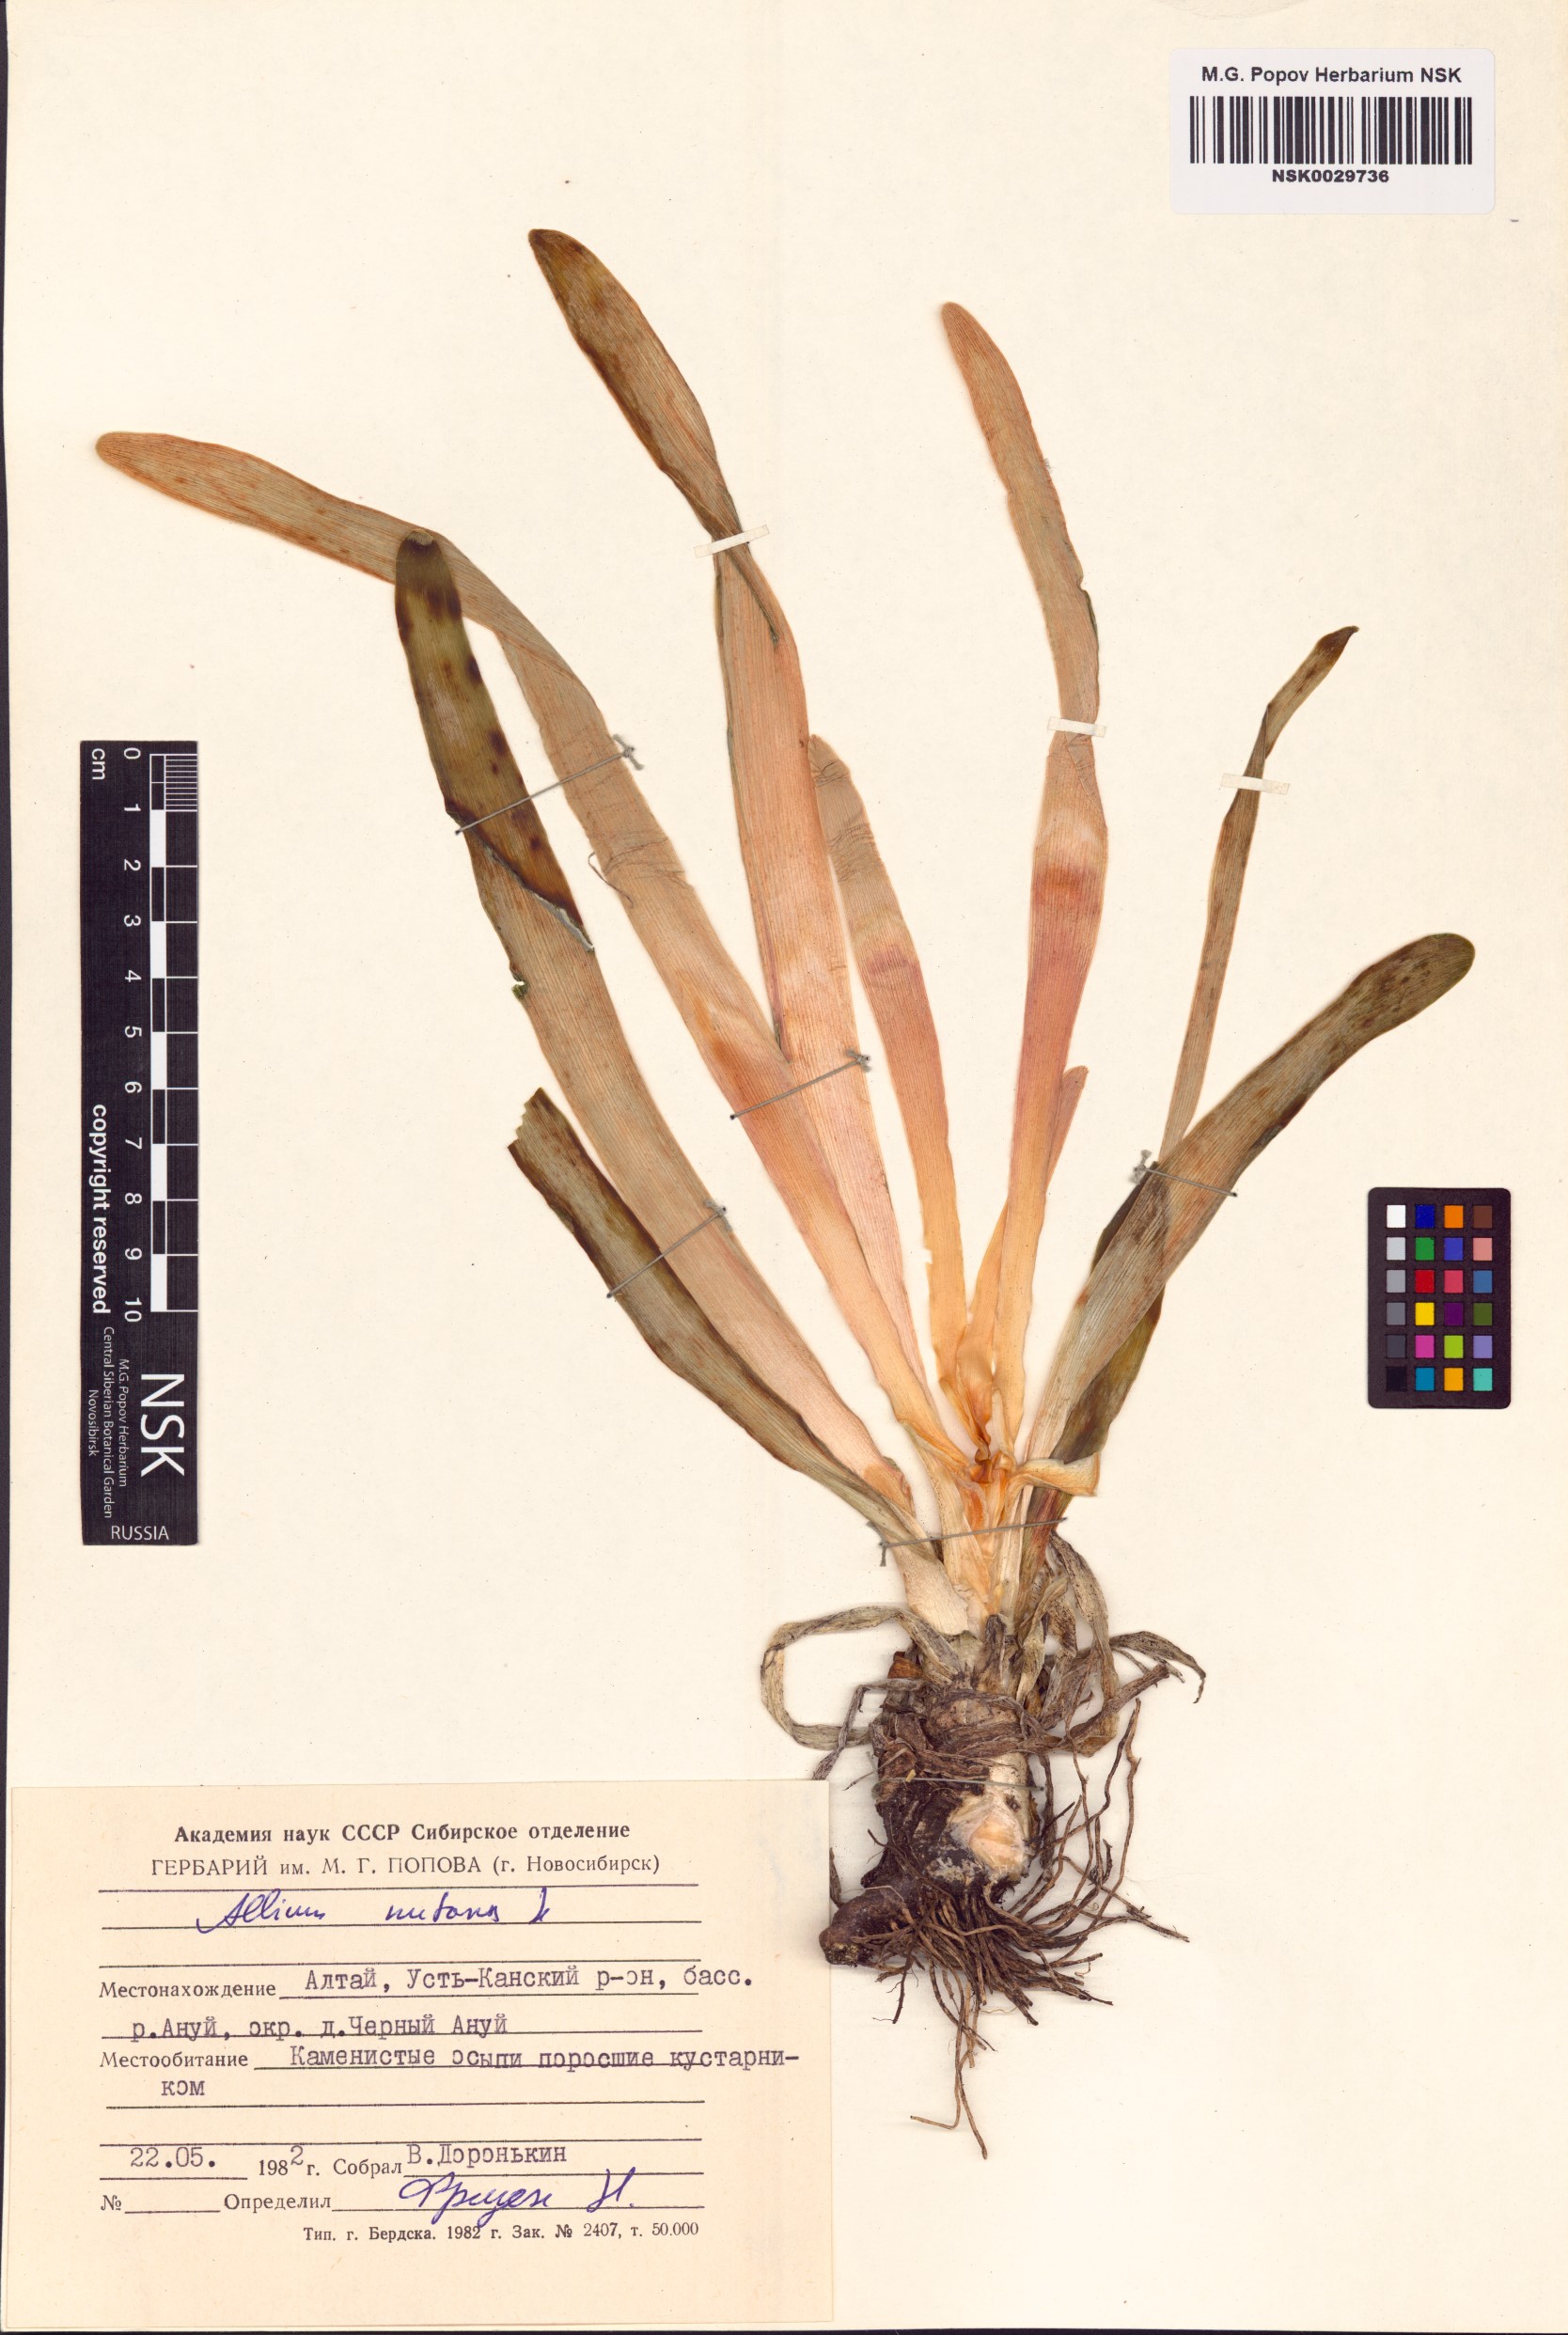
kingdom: Plantae
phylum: Tracheophyta
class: Liliopsida
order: Asparagales
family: Amaryllidaceae
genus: Allium
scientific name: Allium nutans
